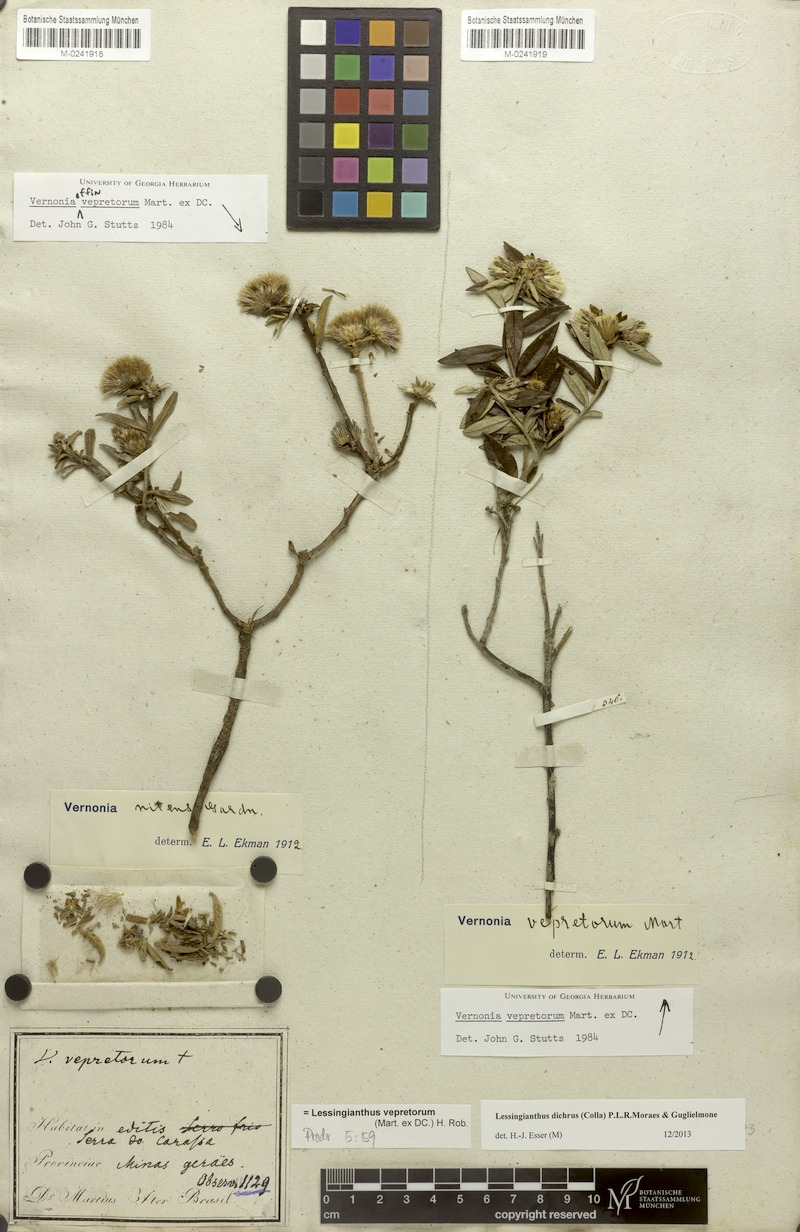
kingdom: Plantae
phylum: Tracheophyta
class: Magnoliopsida
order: Asterales
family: Asteraceae
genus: Lessingianthus
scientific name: Lessingianthus dichrous
